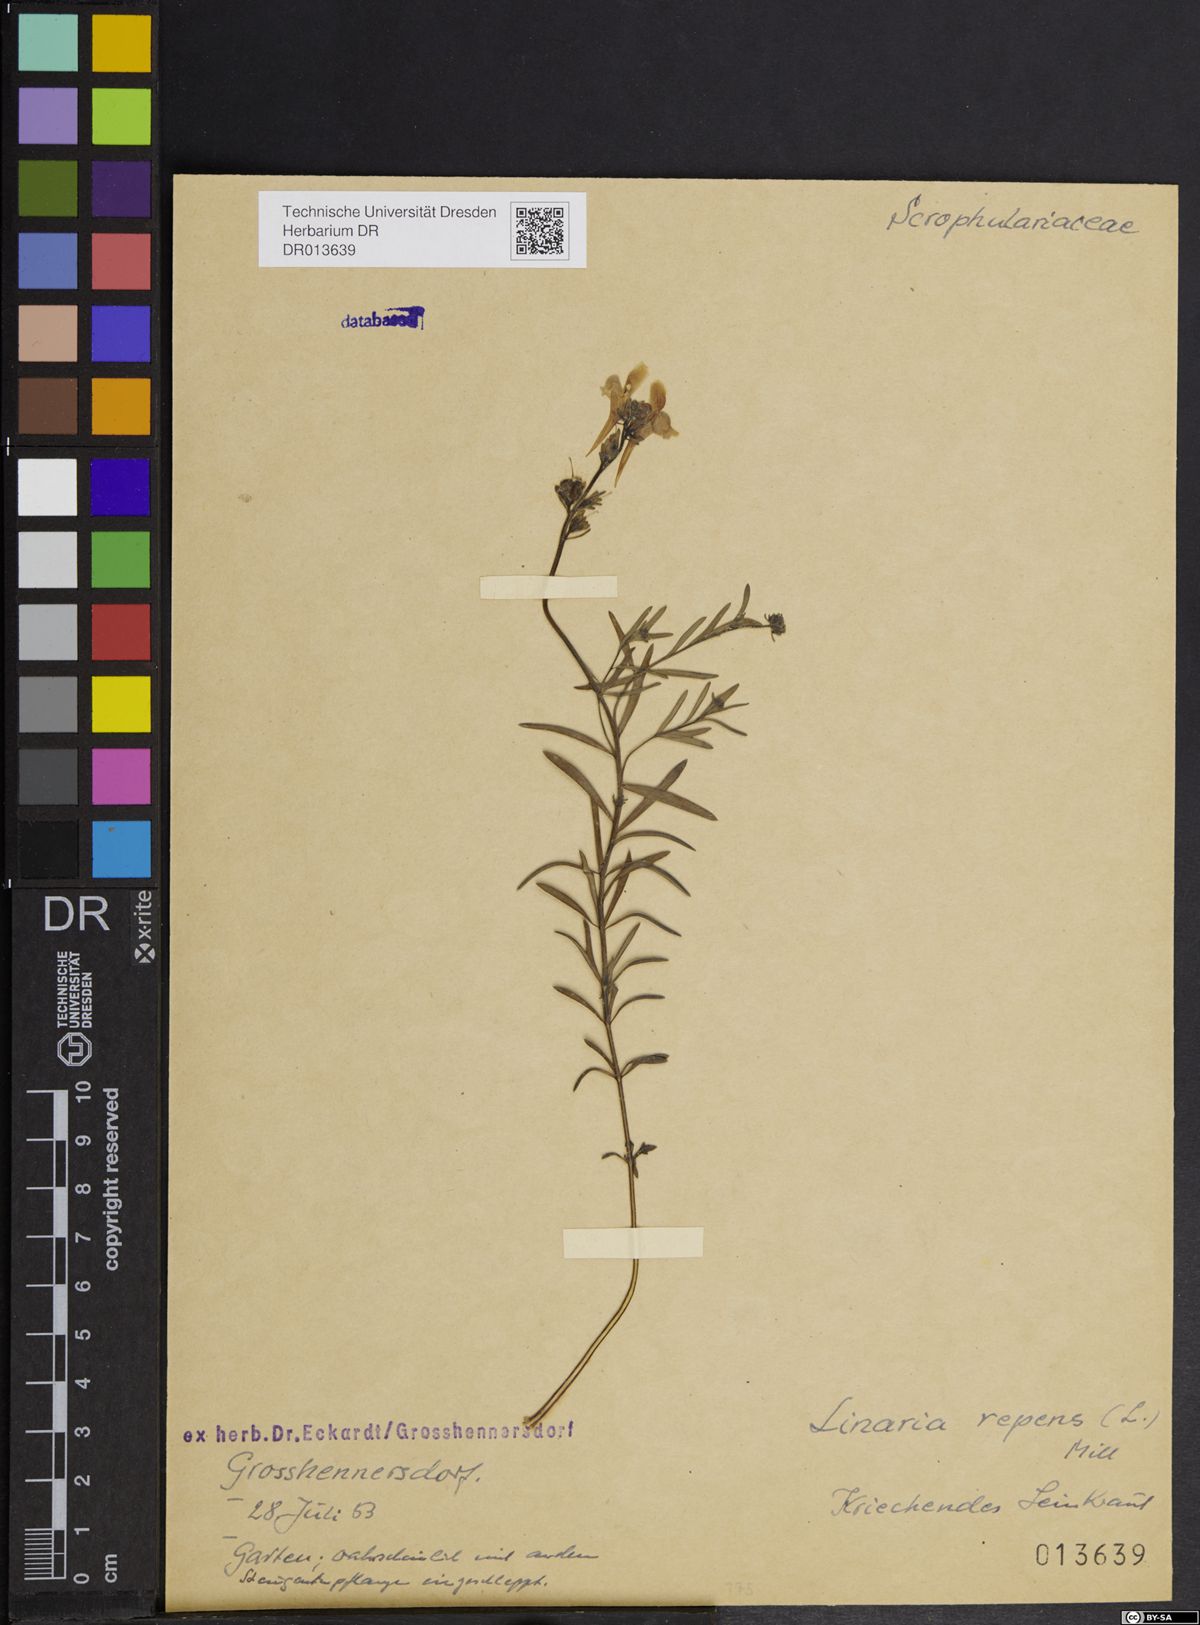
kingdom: Plantae
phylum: Tracheophyta
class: Magnoliopsida
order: Lamiales
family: Plantaginaceae
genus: Linaria
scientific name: Linaria repens
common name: Pale toadflax
